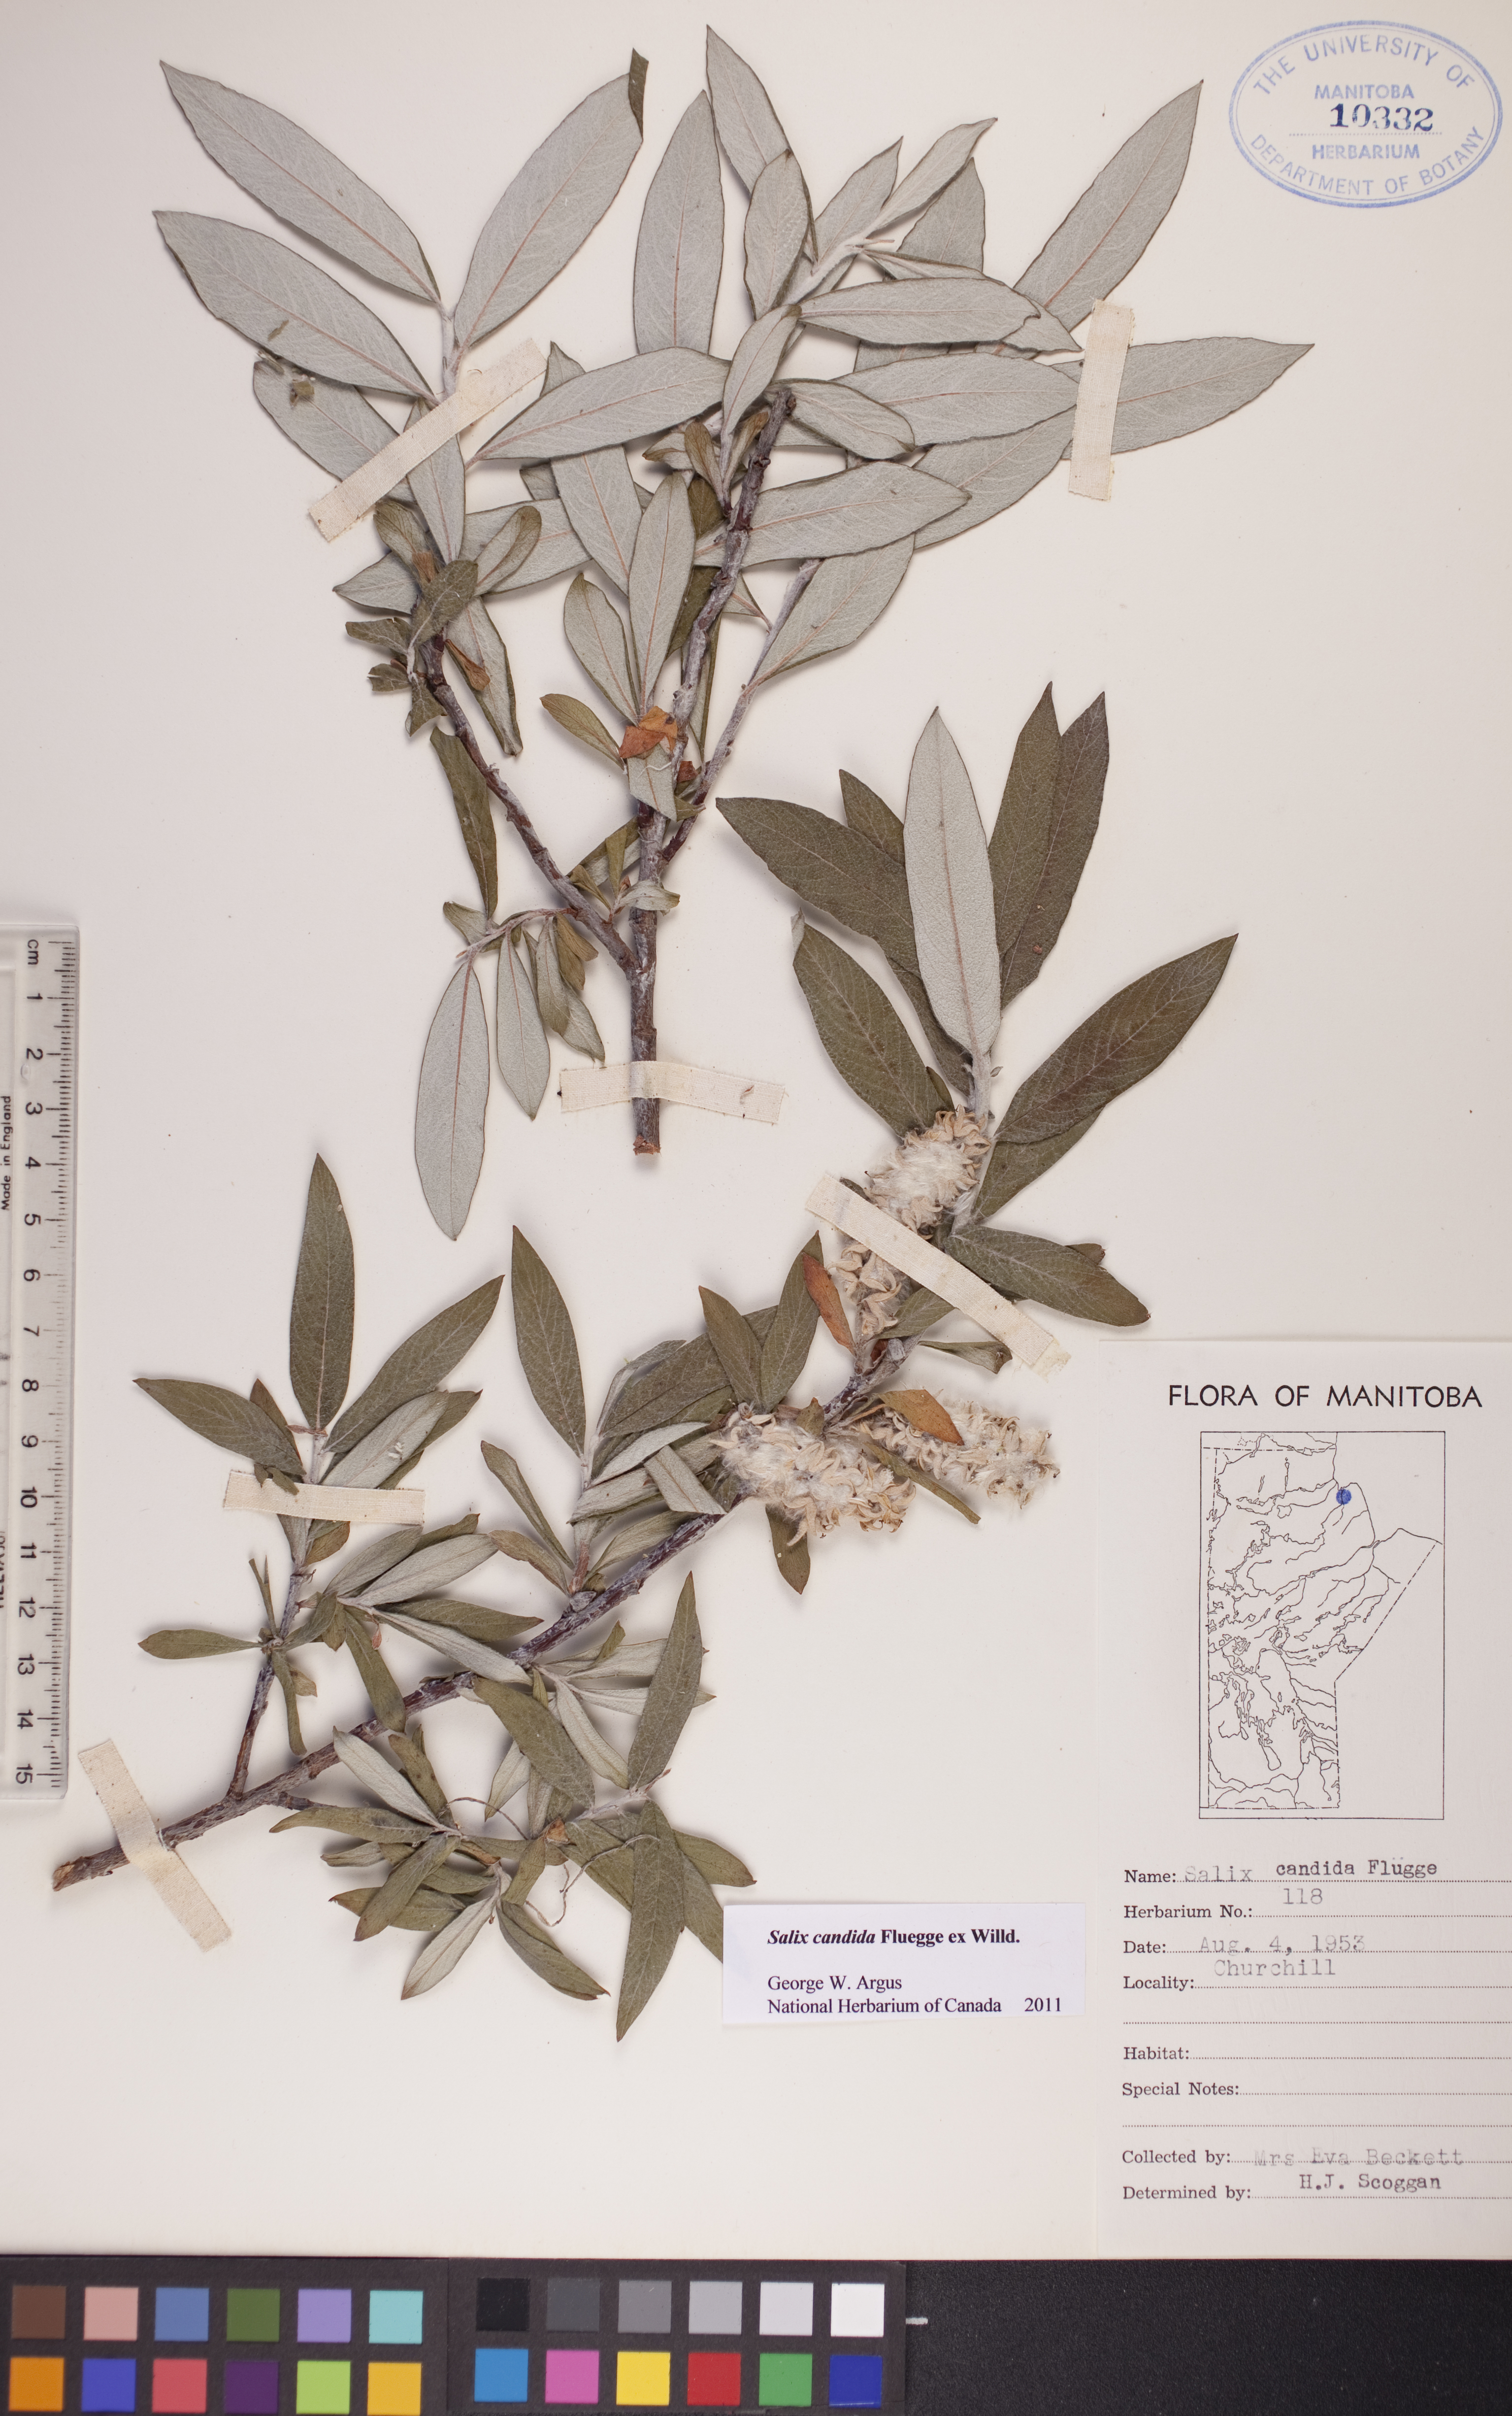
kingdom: Plantae
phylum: Tracheophyta
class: Magnoliopsida
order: Malpighiales
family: Salicaceae
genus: Salix
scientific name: Salix candida
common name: Hoary willow
